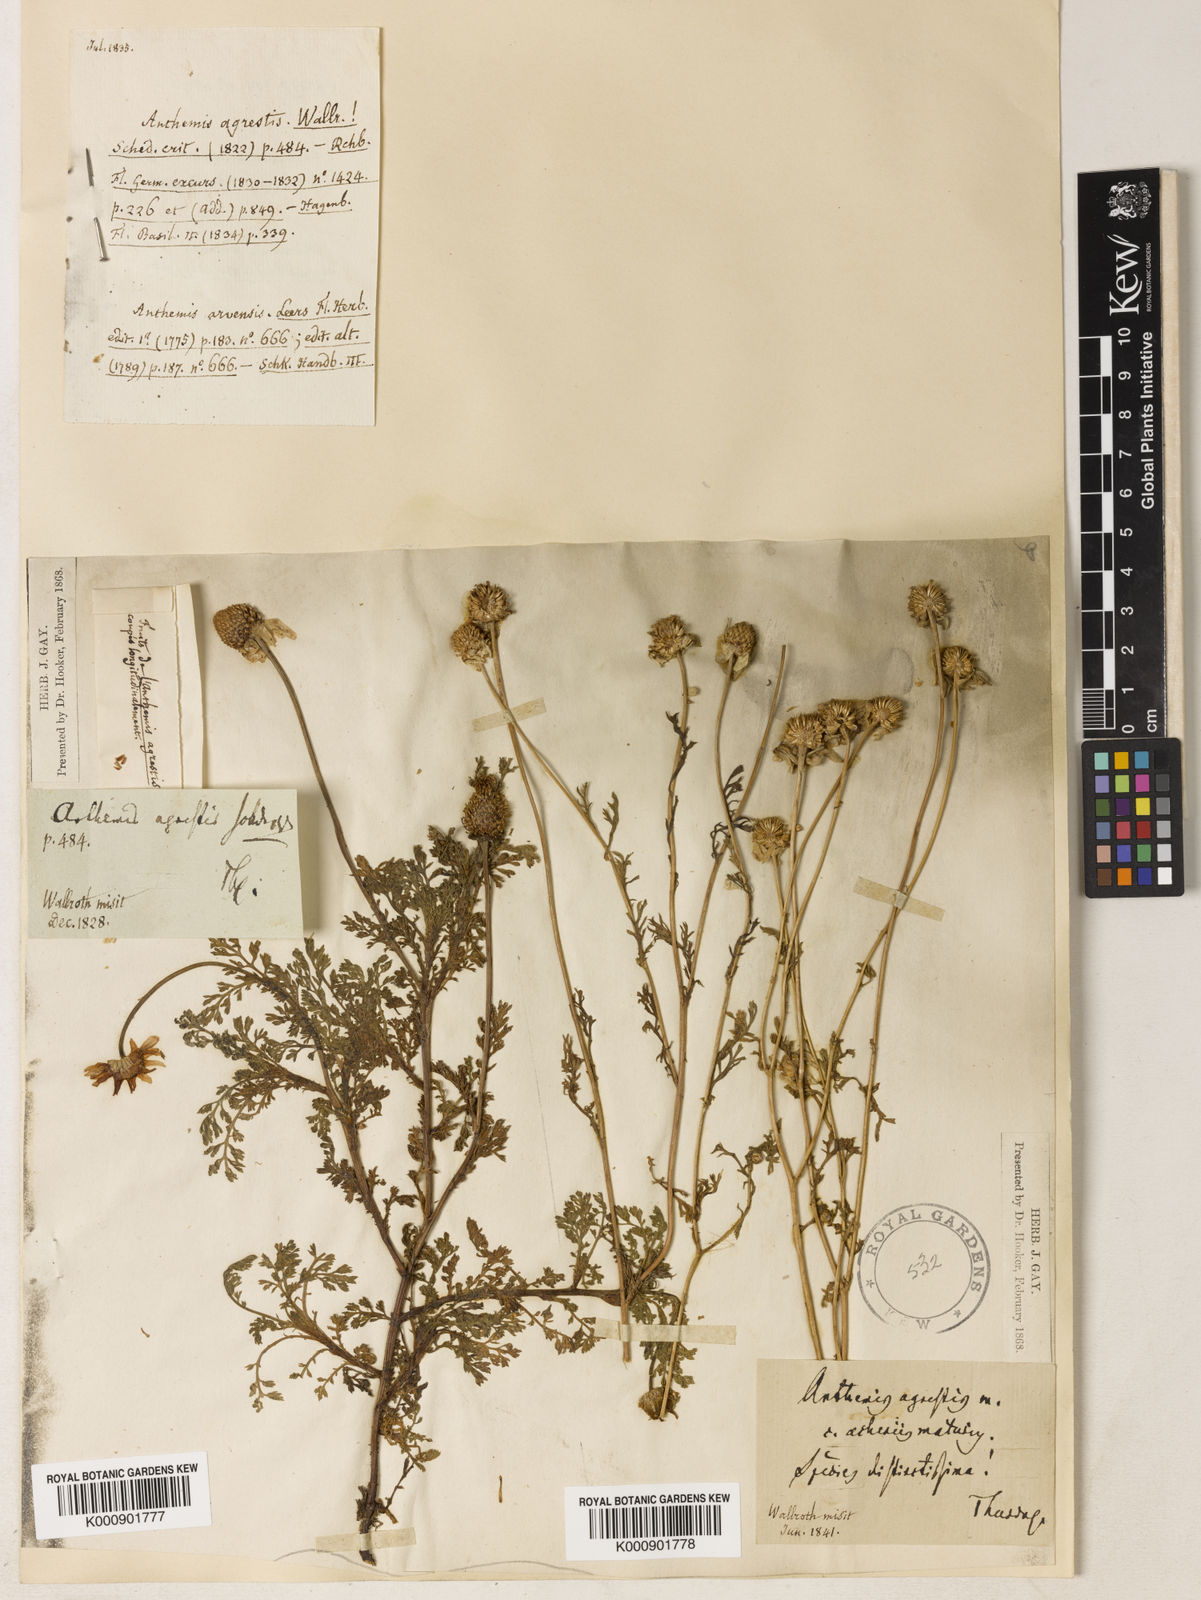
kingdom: Plantae
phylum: Tracheophyta
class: Magnoliopsida
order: Asterales
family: Asteraceae
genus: Anthemis
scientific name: Anthemis arvensis
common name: Corn chamomile
